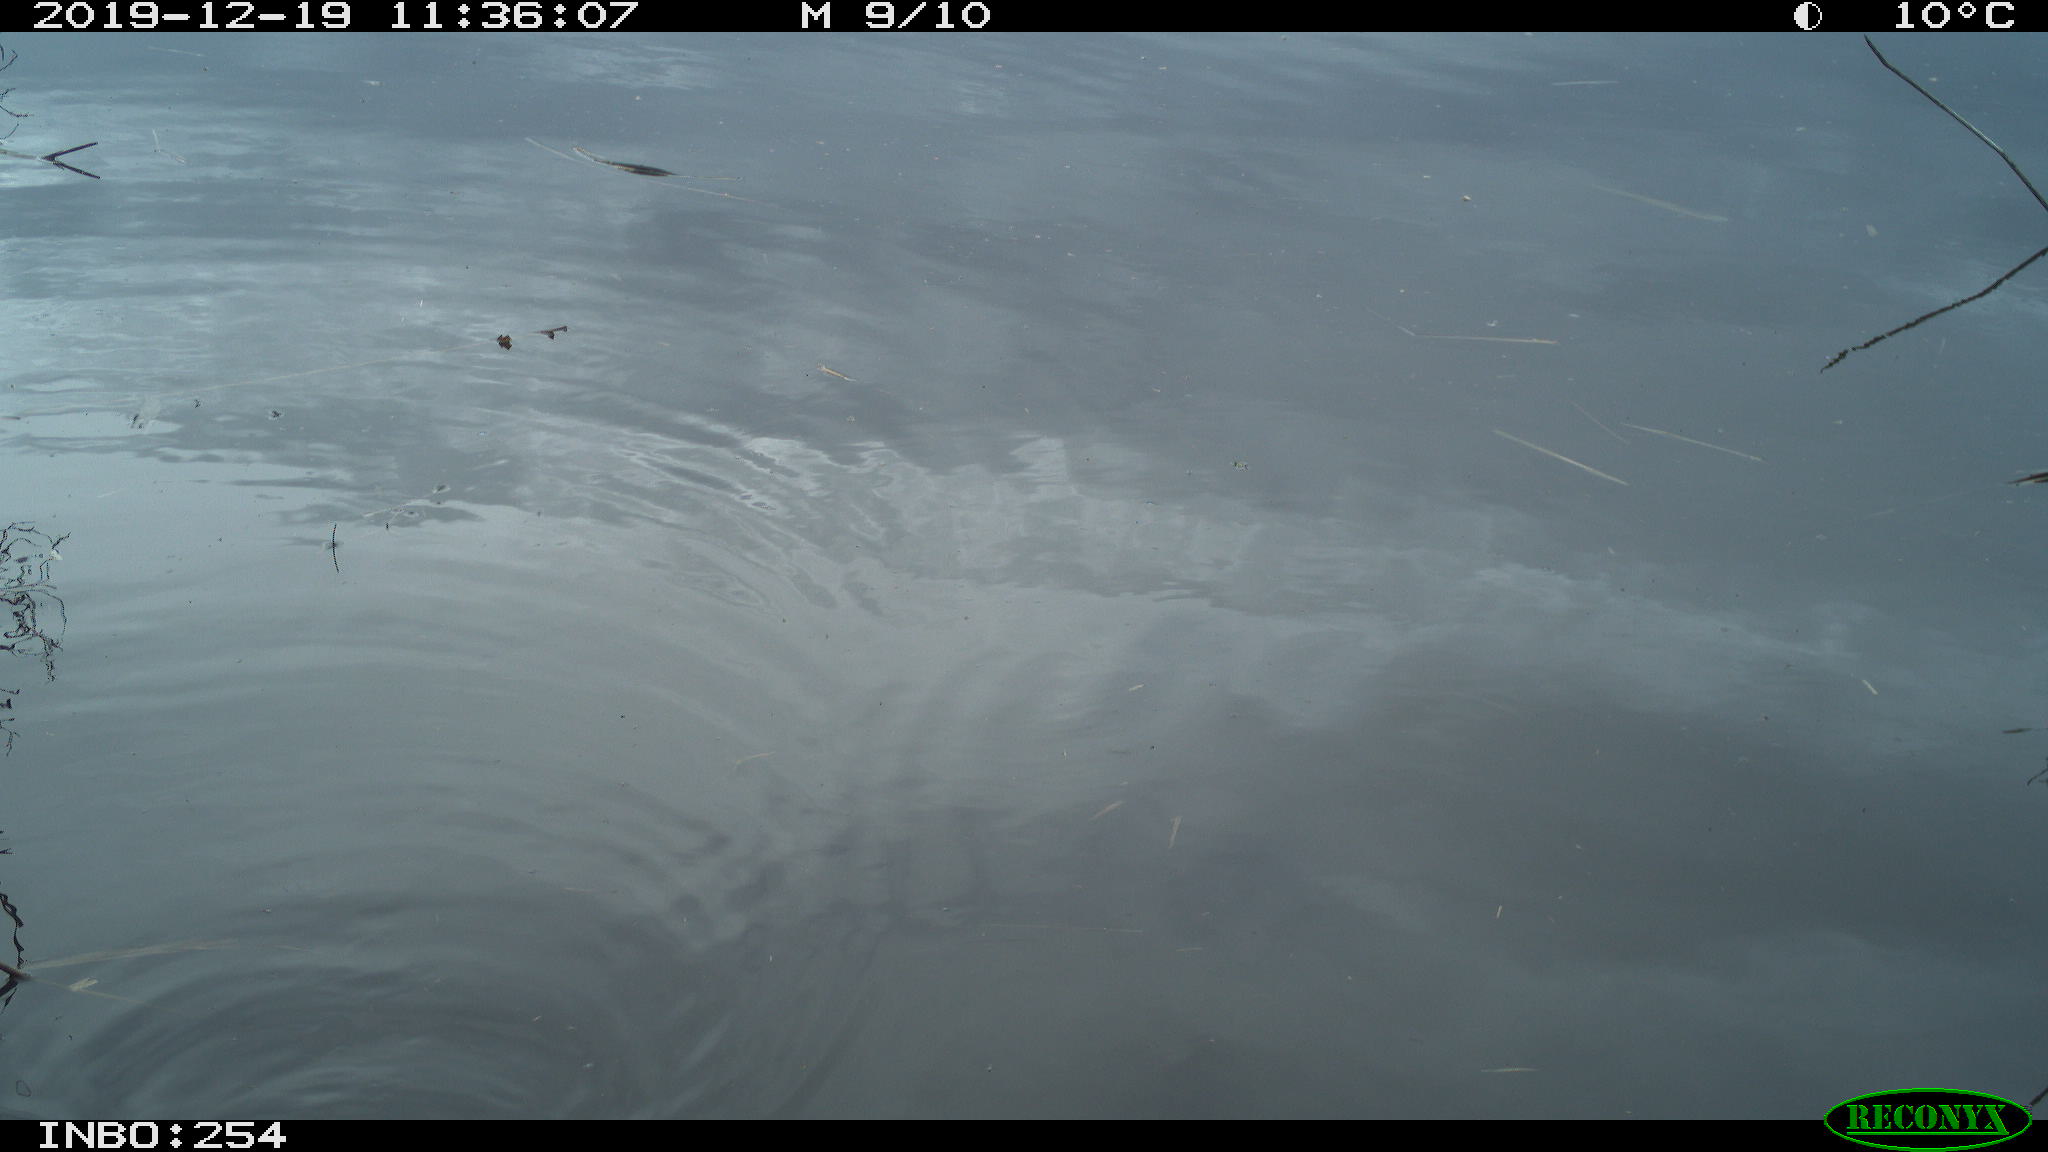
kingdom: Animalia
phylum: Chordata
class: Aves
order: Gruiformes
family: Rallidae
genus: Gallinula
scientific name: Gallinula chloropus
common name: Common moorhen
